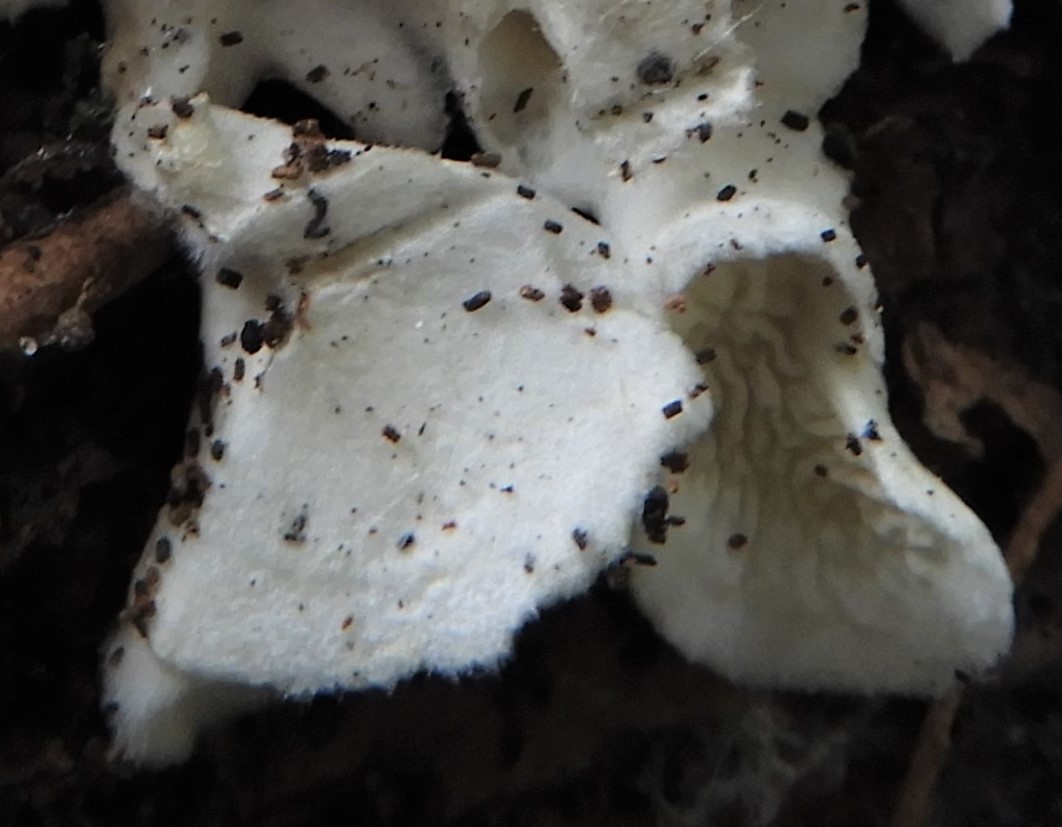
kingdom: Fungi
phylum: Basidiomycota
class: Agaricomycetes
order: Amylocorticiales
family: Amylocorticiaceae
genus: Plicaturopsis
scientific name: Plicaturopsis crispa
